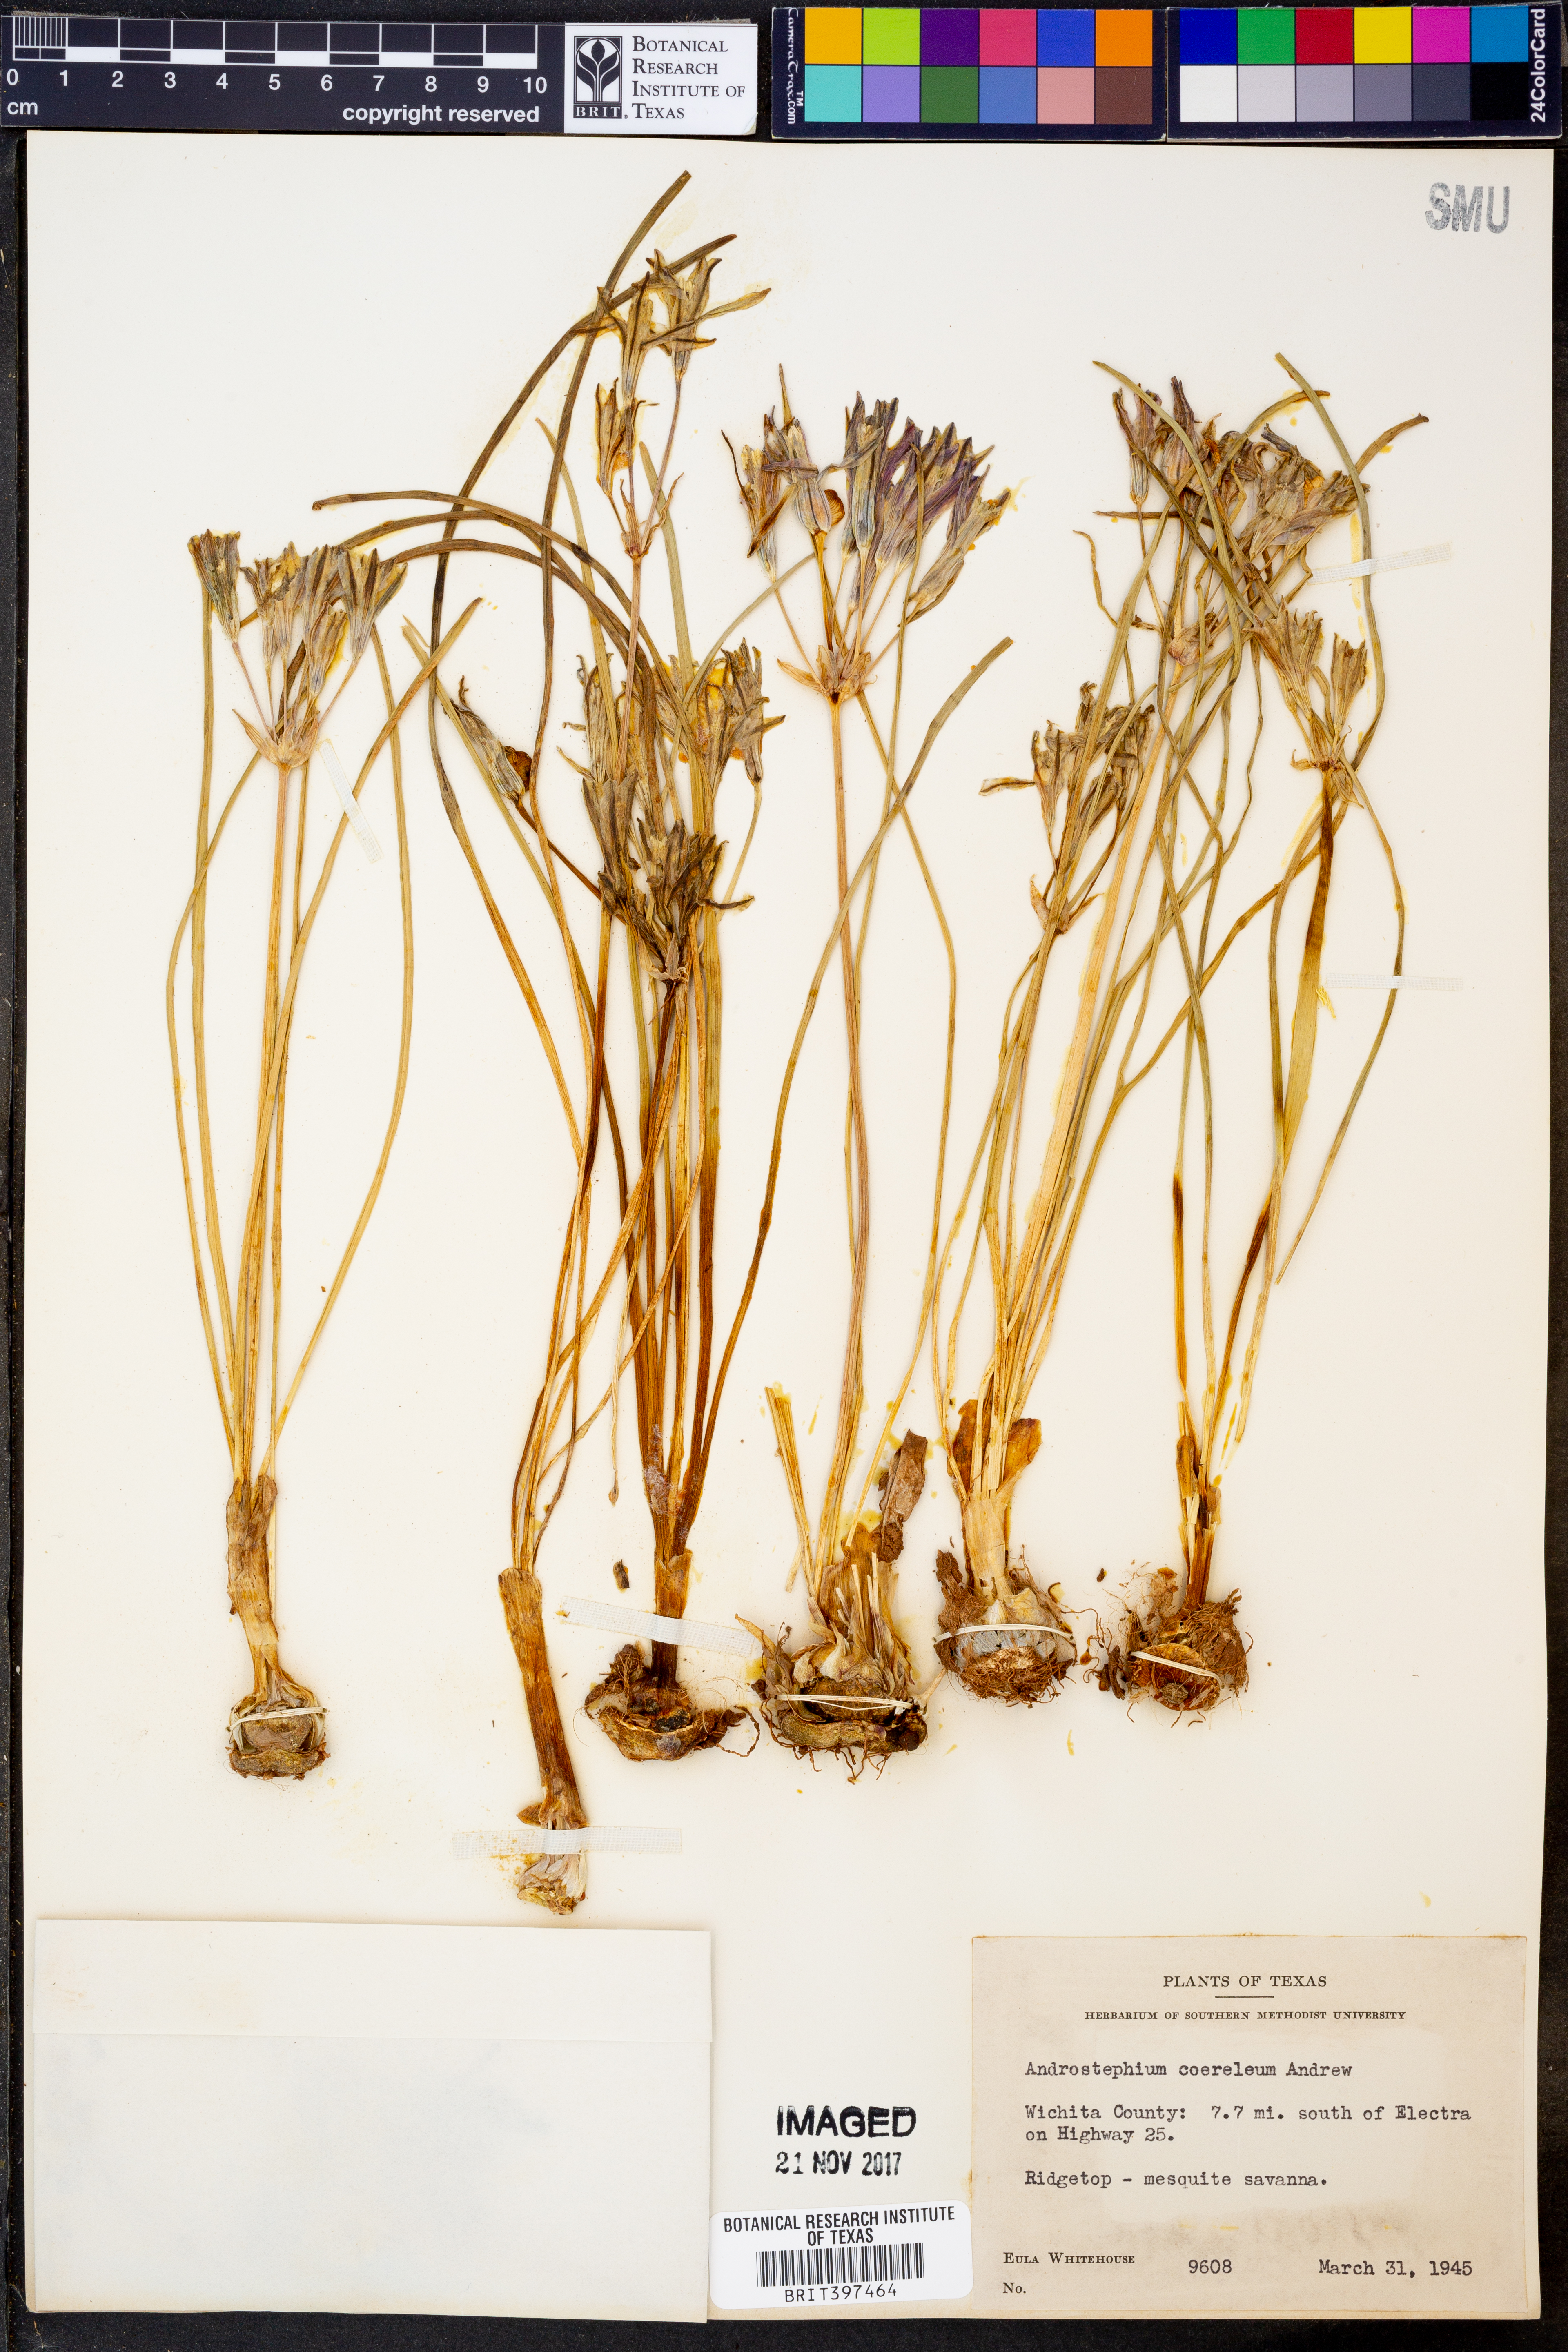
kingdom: Plantae
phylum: Tracheophyta
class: Liliopsida
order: Asparagales
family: Asparagaceae
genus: Androstephium
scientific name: Androstephium caeruleum
